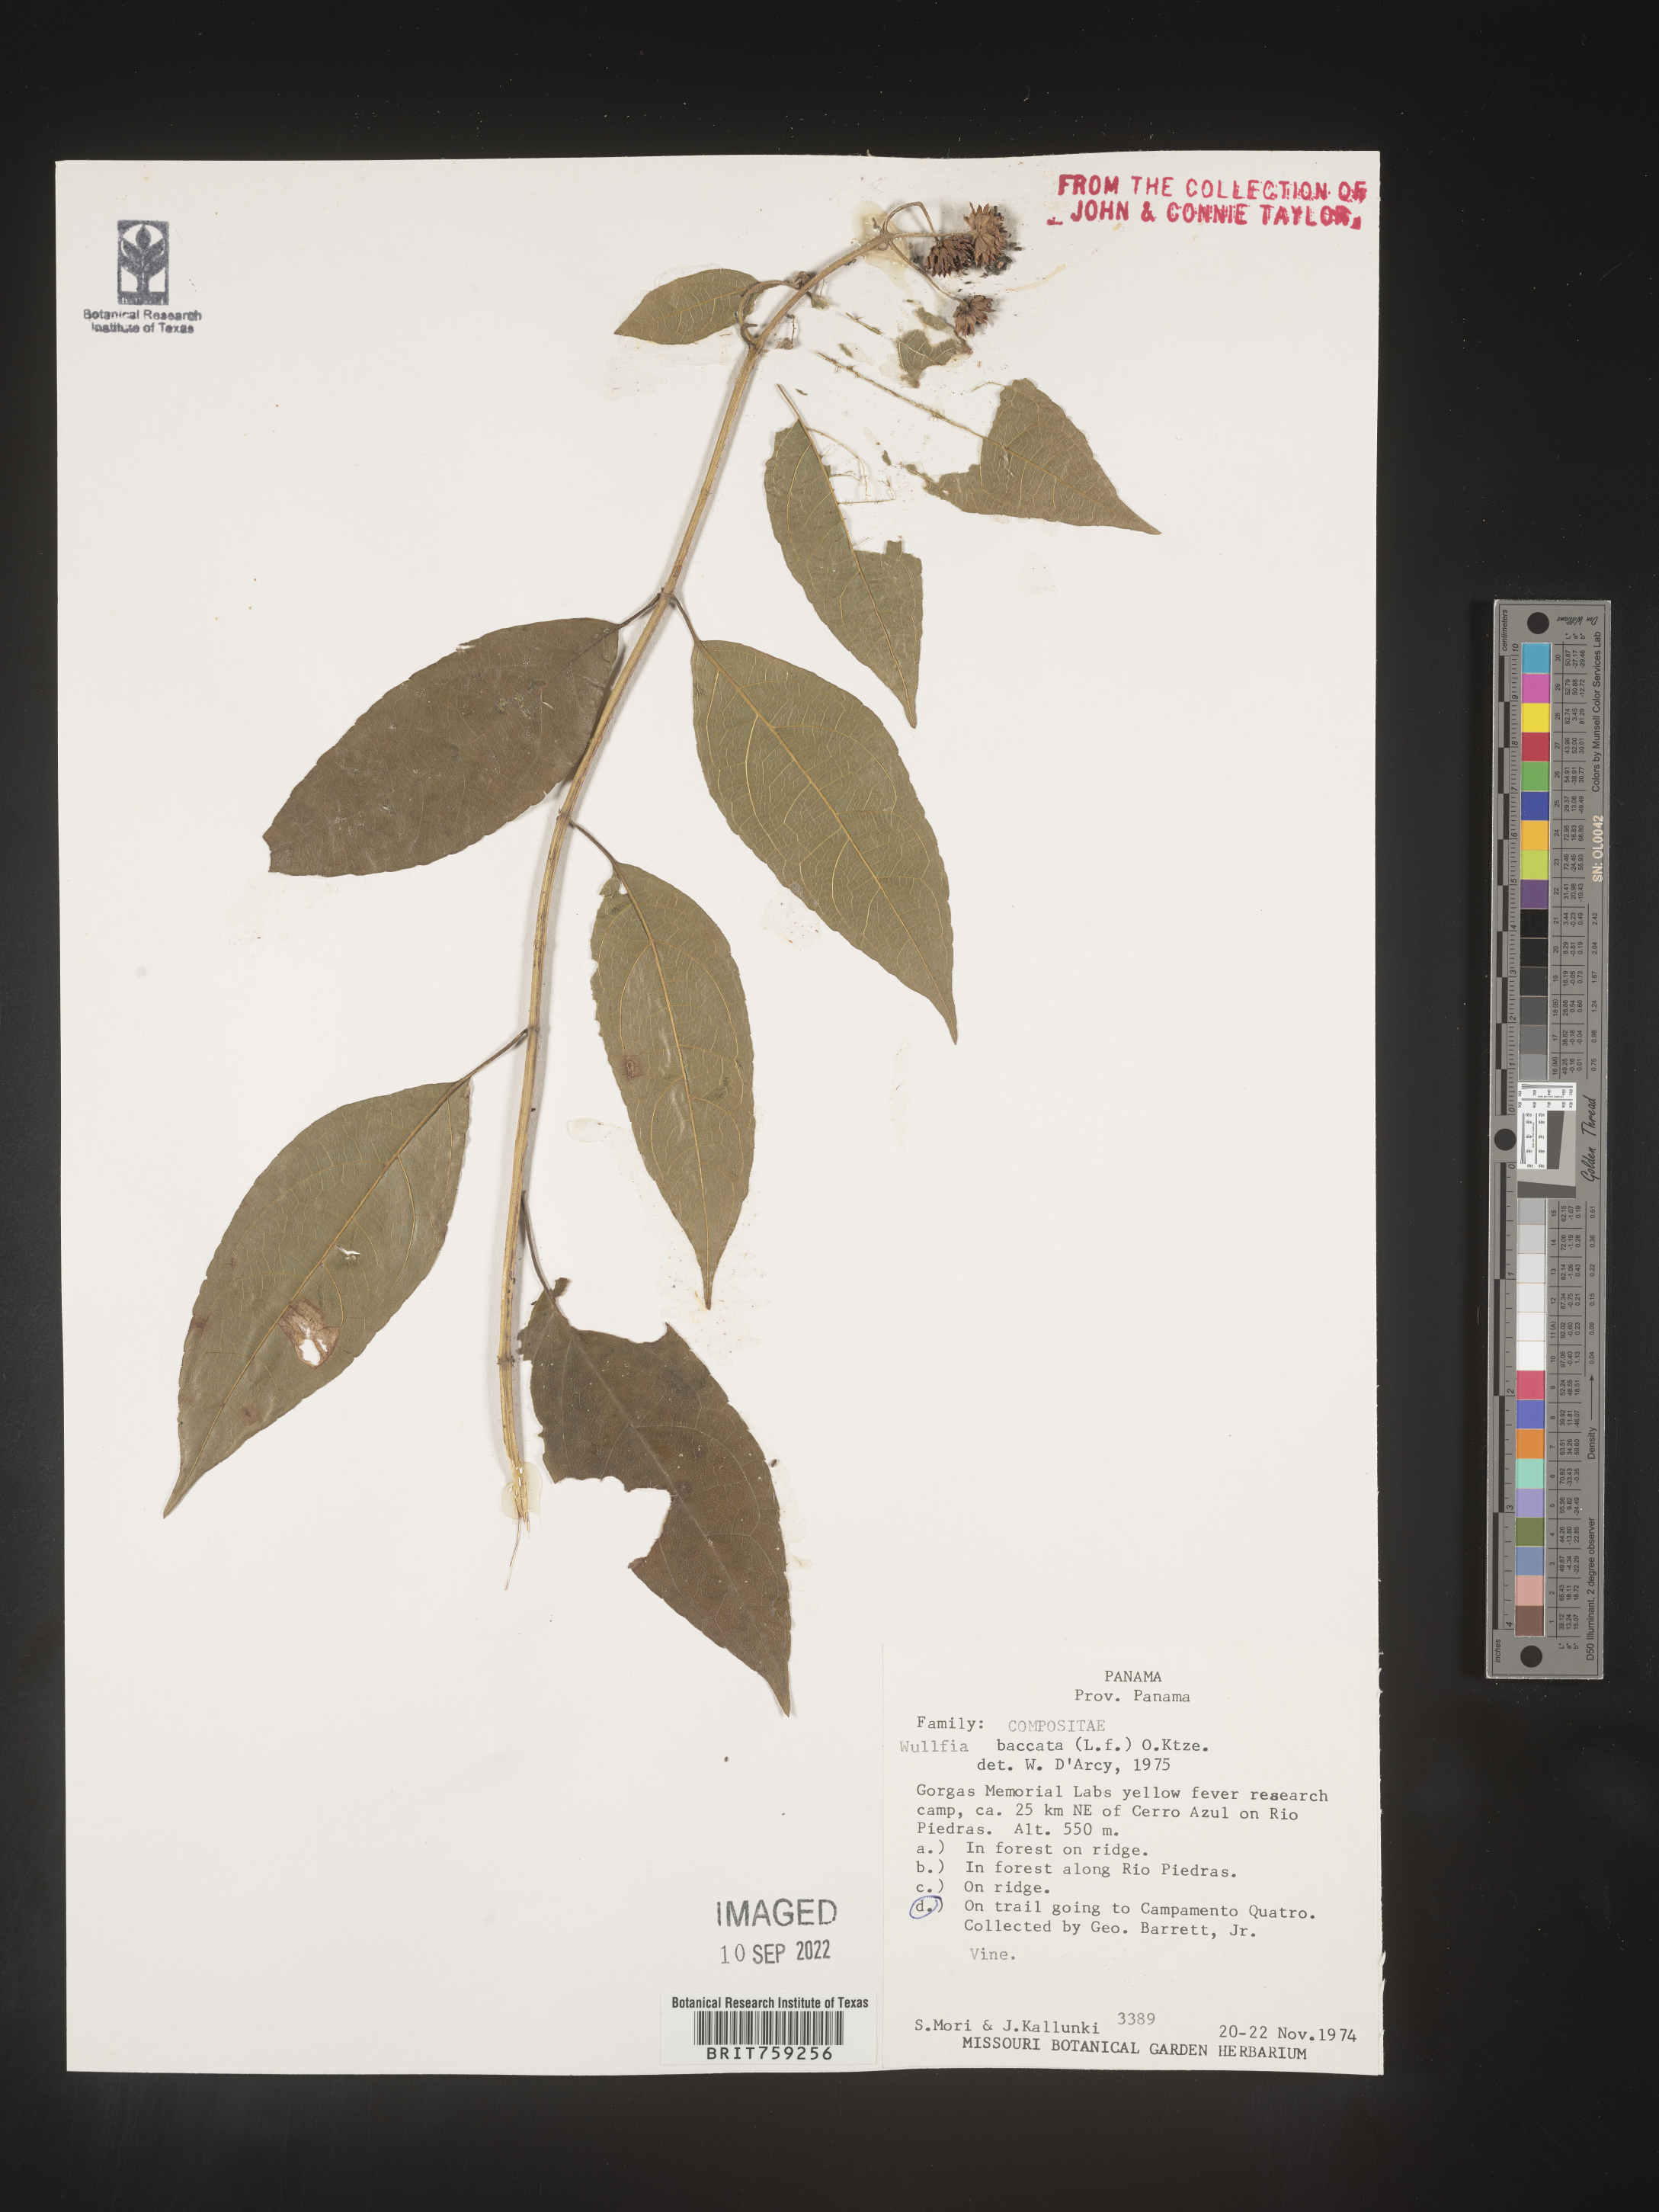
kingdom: Plantae
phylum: Tracheophyta
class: Magnoliopsida
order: Asterales
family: Asteraceae
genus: Tilesia
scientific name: Tilesia
